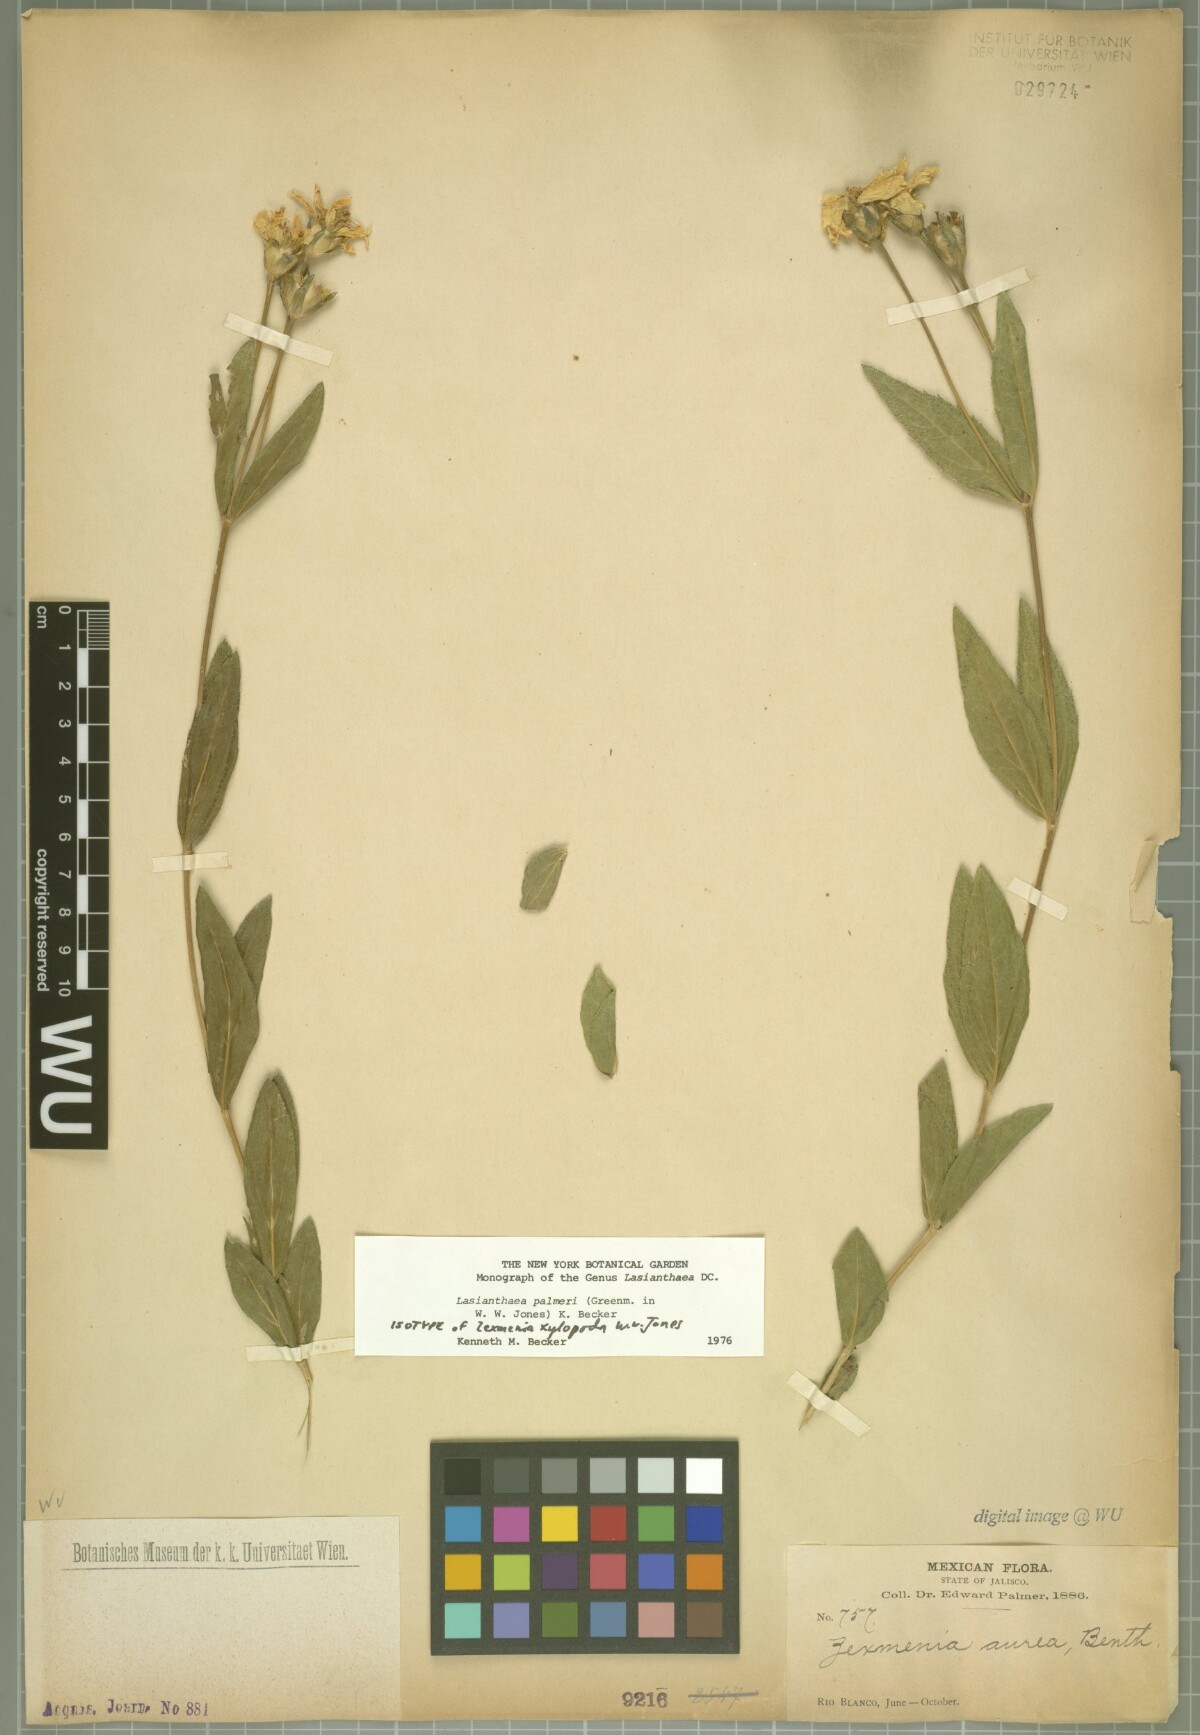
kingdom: Plantae
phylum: Tracheophyta
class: Magnoliopsida
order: Asterales
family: Asteraceae
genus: Lasianthaea
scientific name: Lasianthaea palmeri
